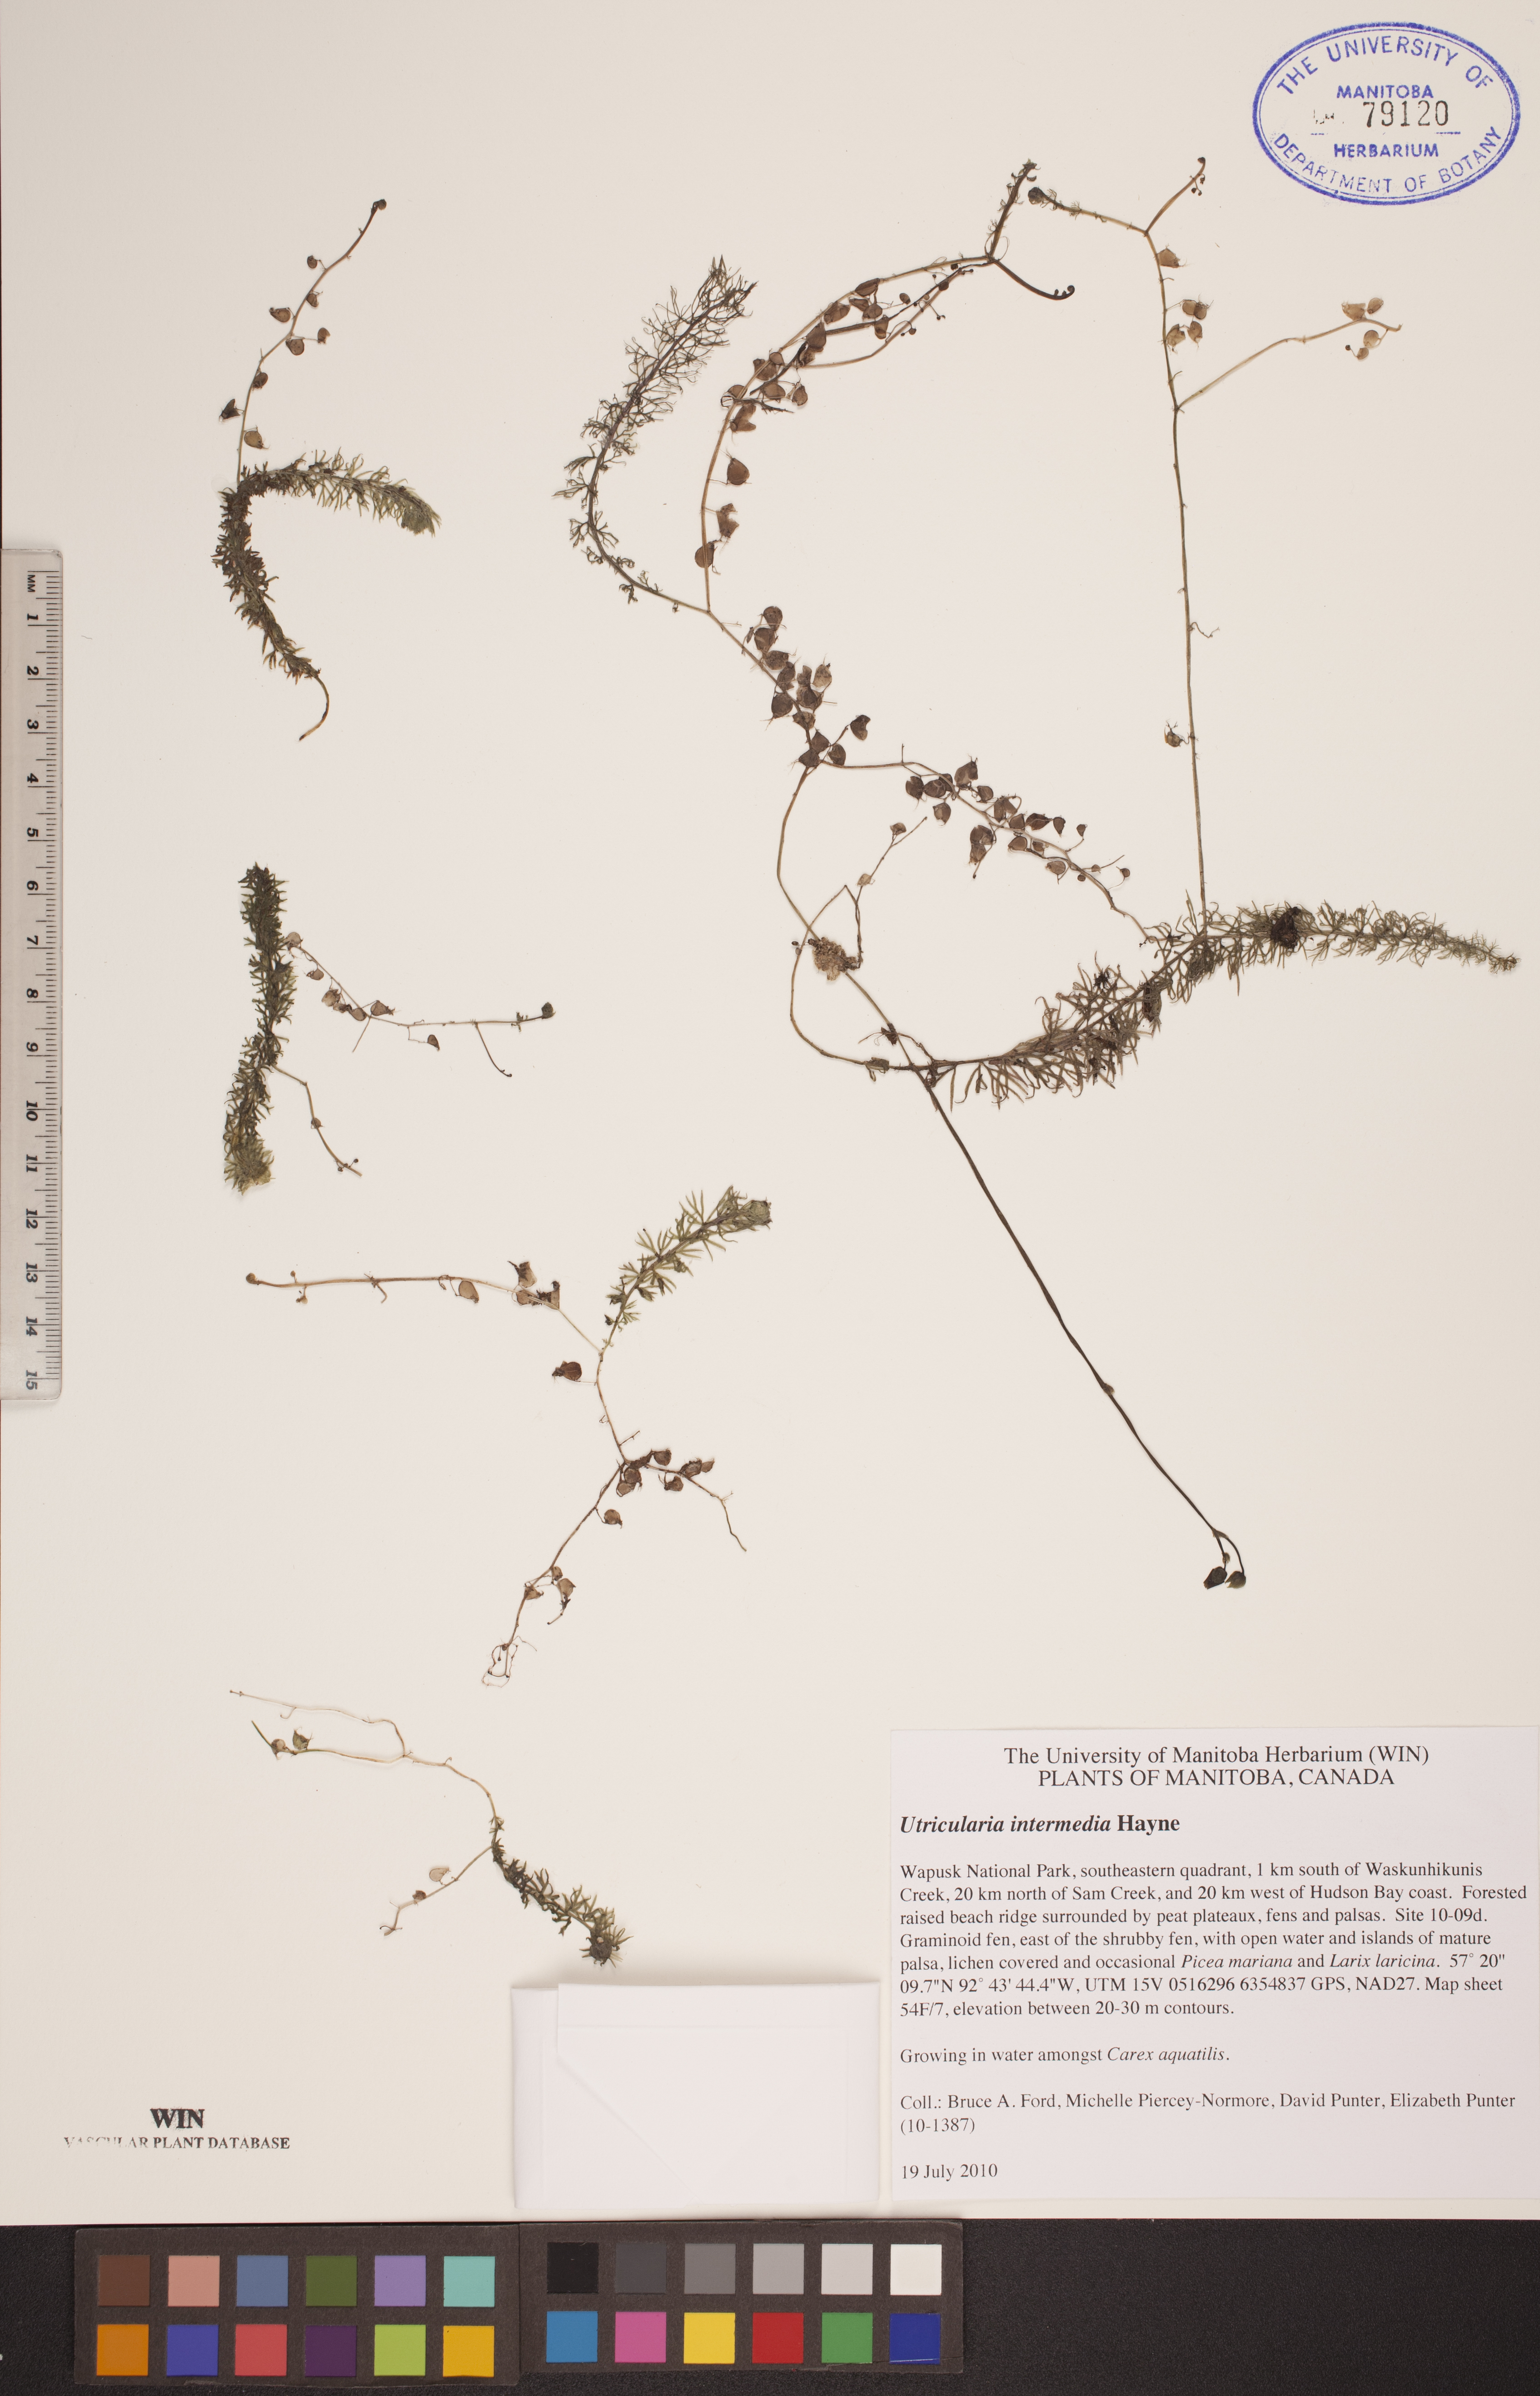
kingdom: Plantae
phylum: Tracheophyta
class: Magnoliopsida
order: Lamiales
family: Lentibulariaceae
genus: Utricularia
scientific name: Utricularia intermedia
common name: Intermediate bladderwort
